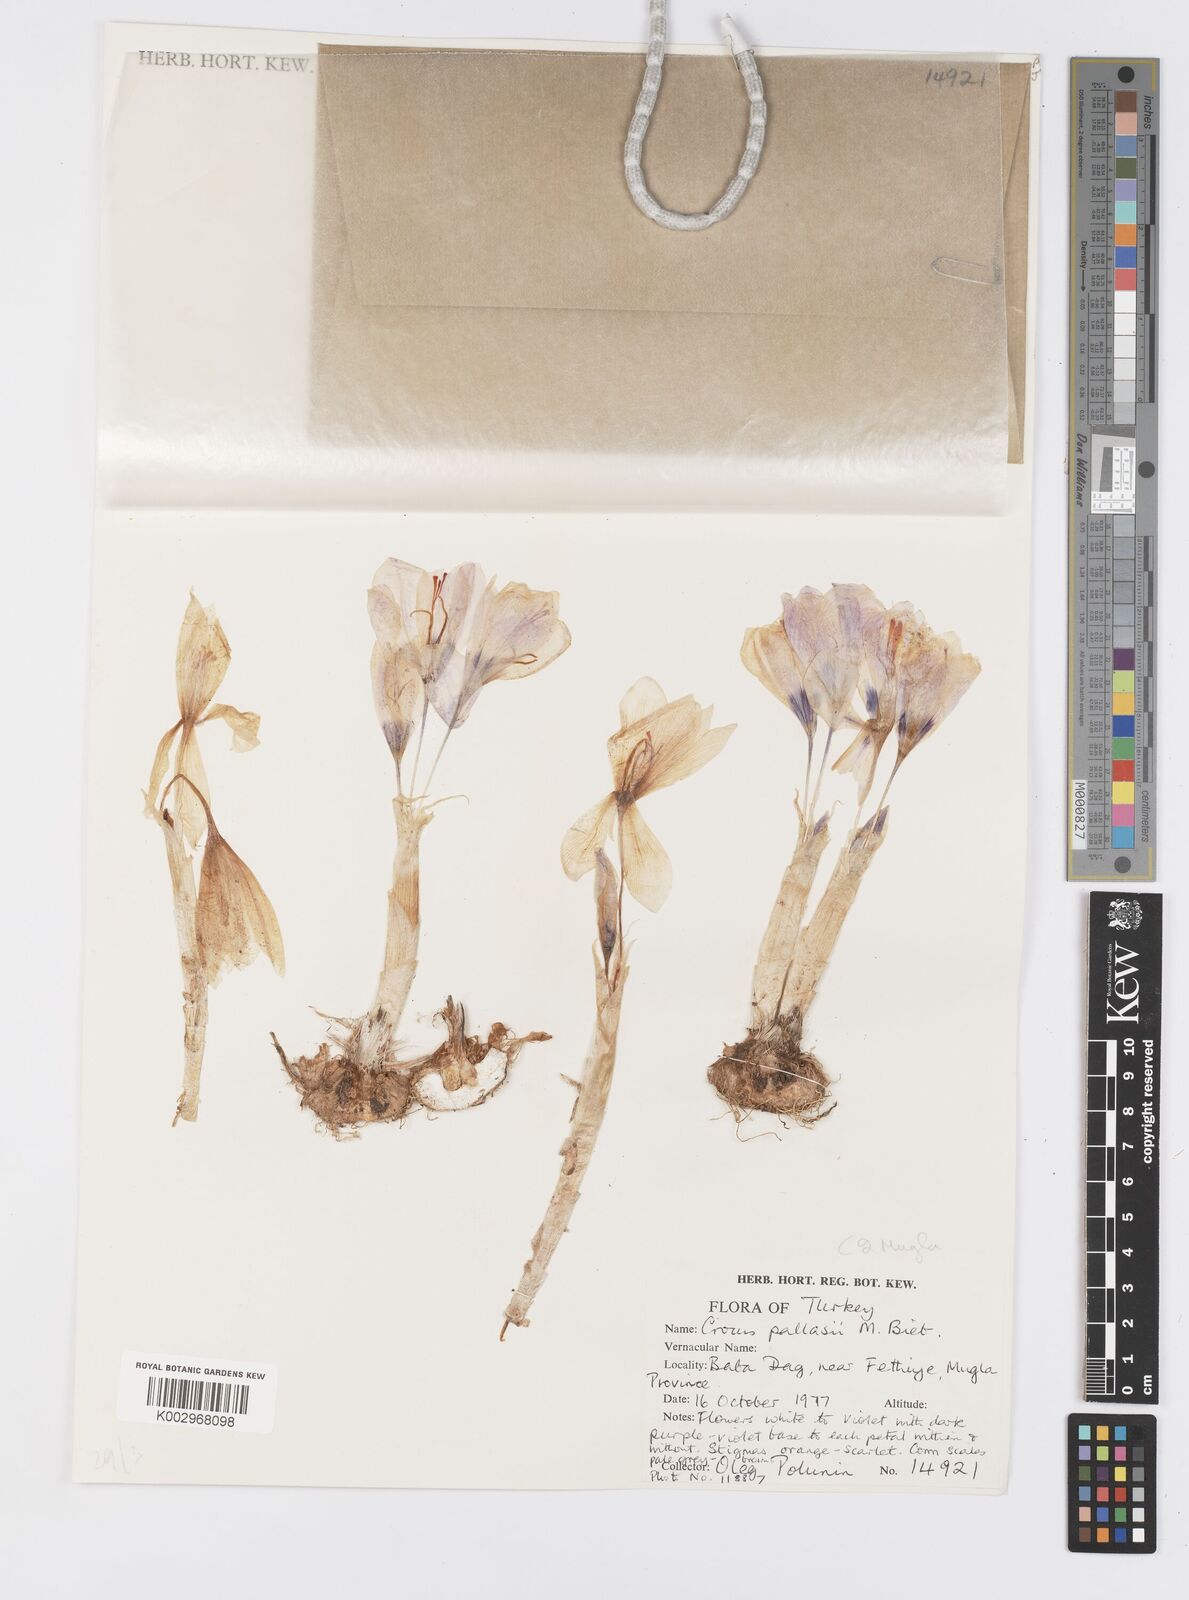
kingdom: Plantae
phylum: Tracheophyta
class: Liliopsida
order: Asparagales
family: Iridaceae
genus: Crocus
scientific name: Crocus
